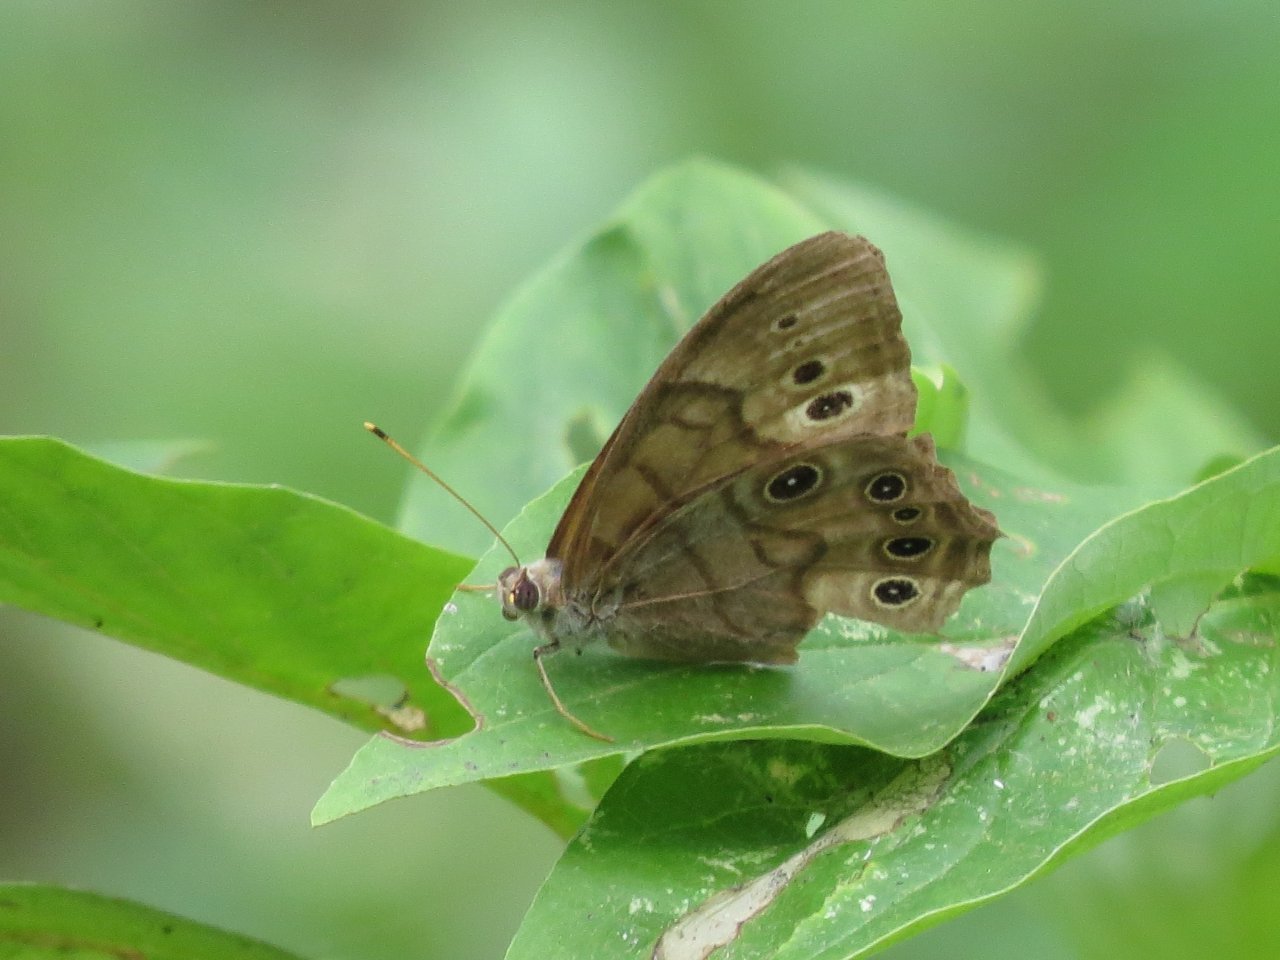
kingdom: Animalia
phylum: Arthropoda
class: Insecta
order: Lepidoptera
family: Nymphalidae
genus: Lethe
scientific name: Lethe anthedon
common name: Northern Pearly-Eye
